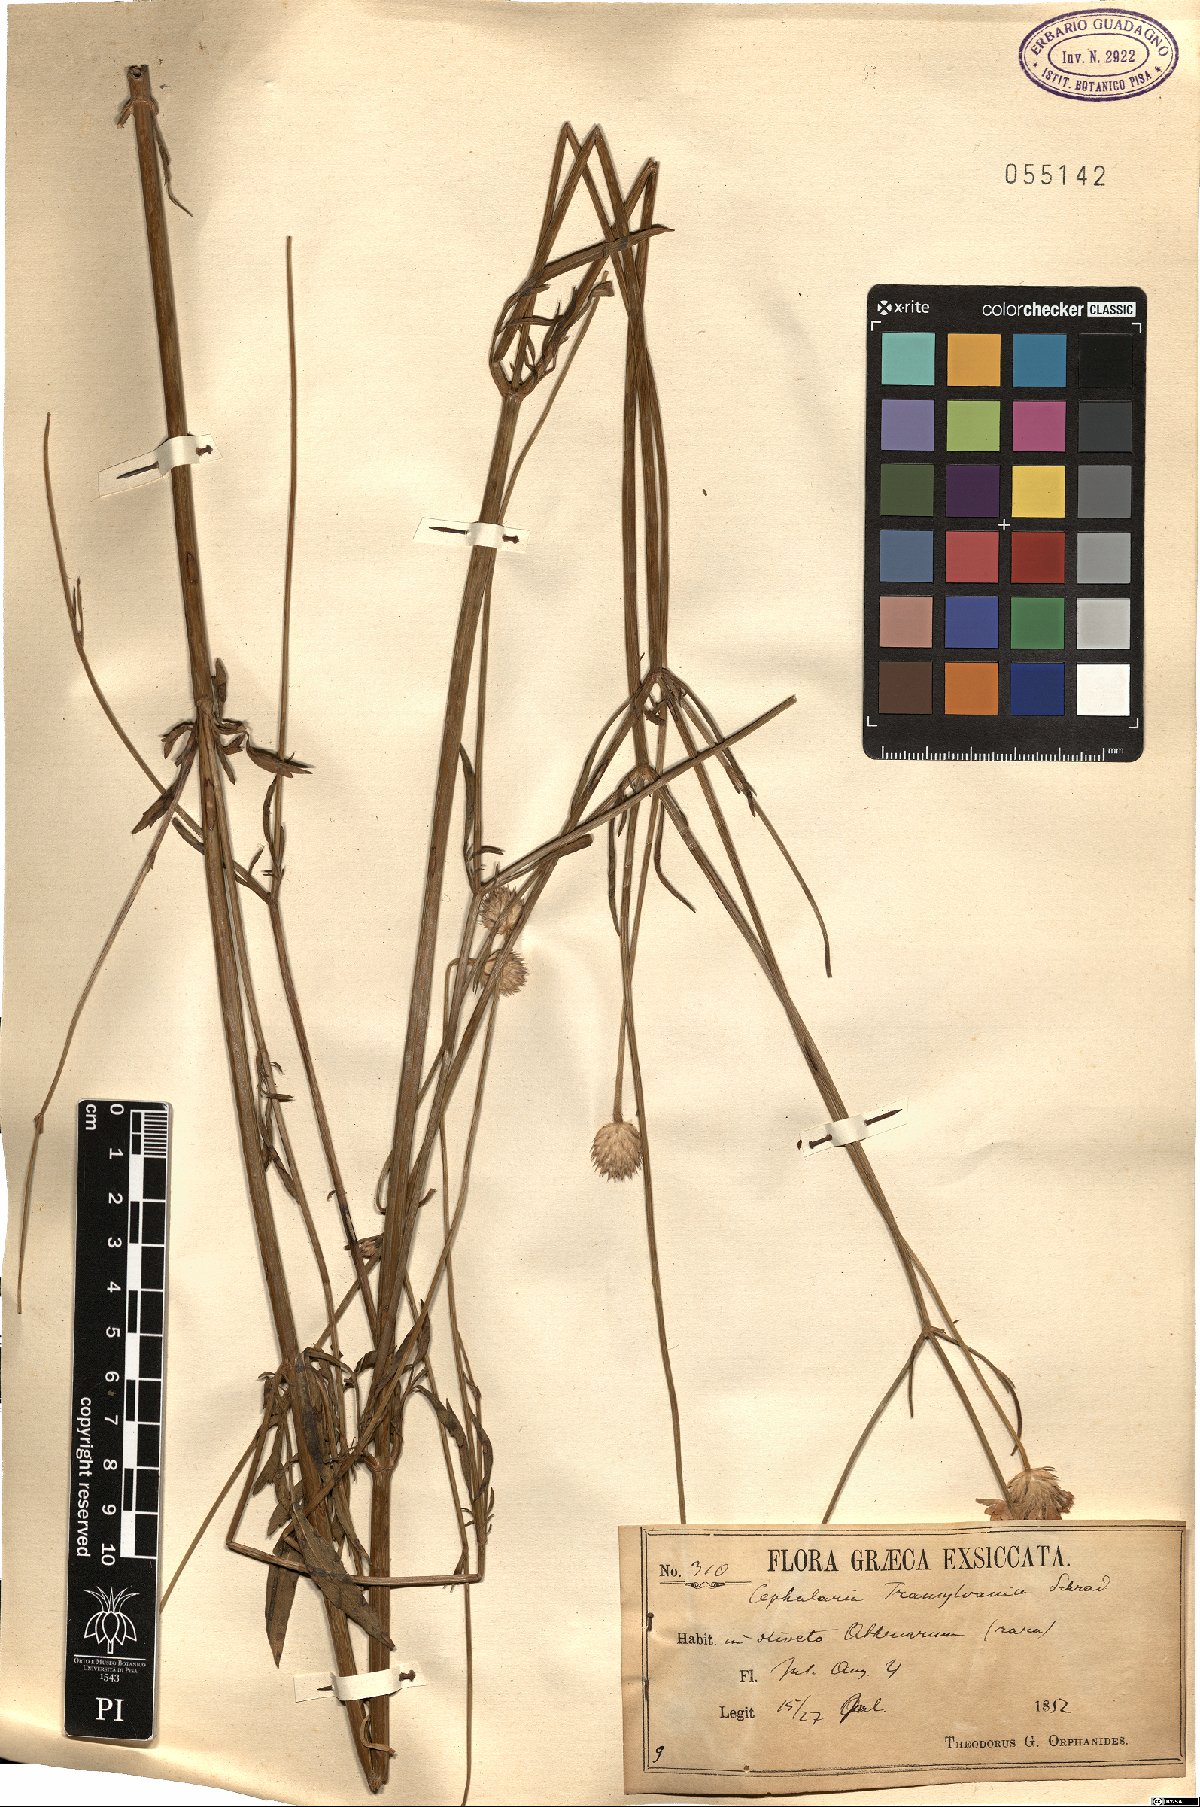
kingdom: Plantae
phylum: Tracheophyta
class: Magnoliopsida
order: Dipsacales
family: Caprifoliaceae
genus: Cephalaria
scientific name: Cephalaria transsylvanica
